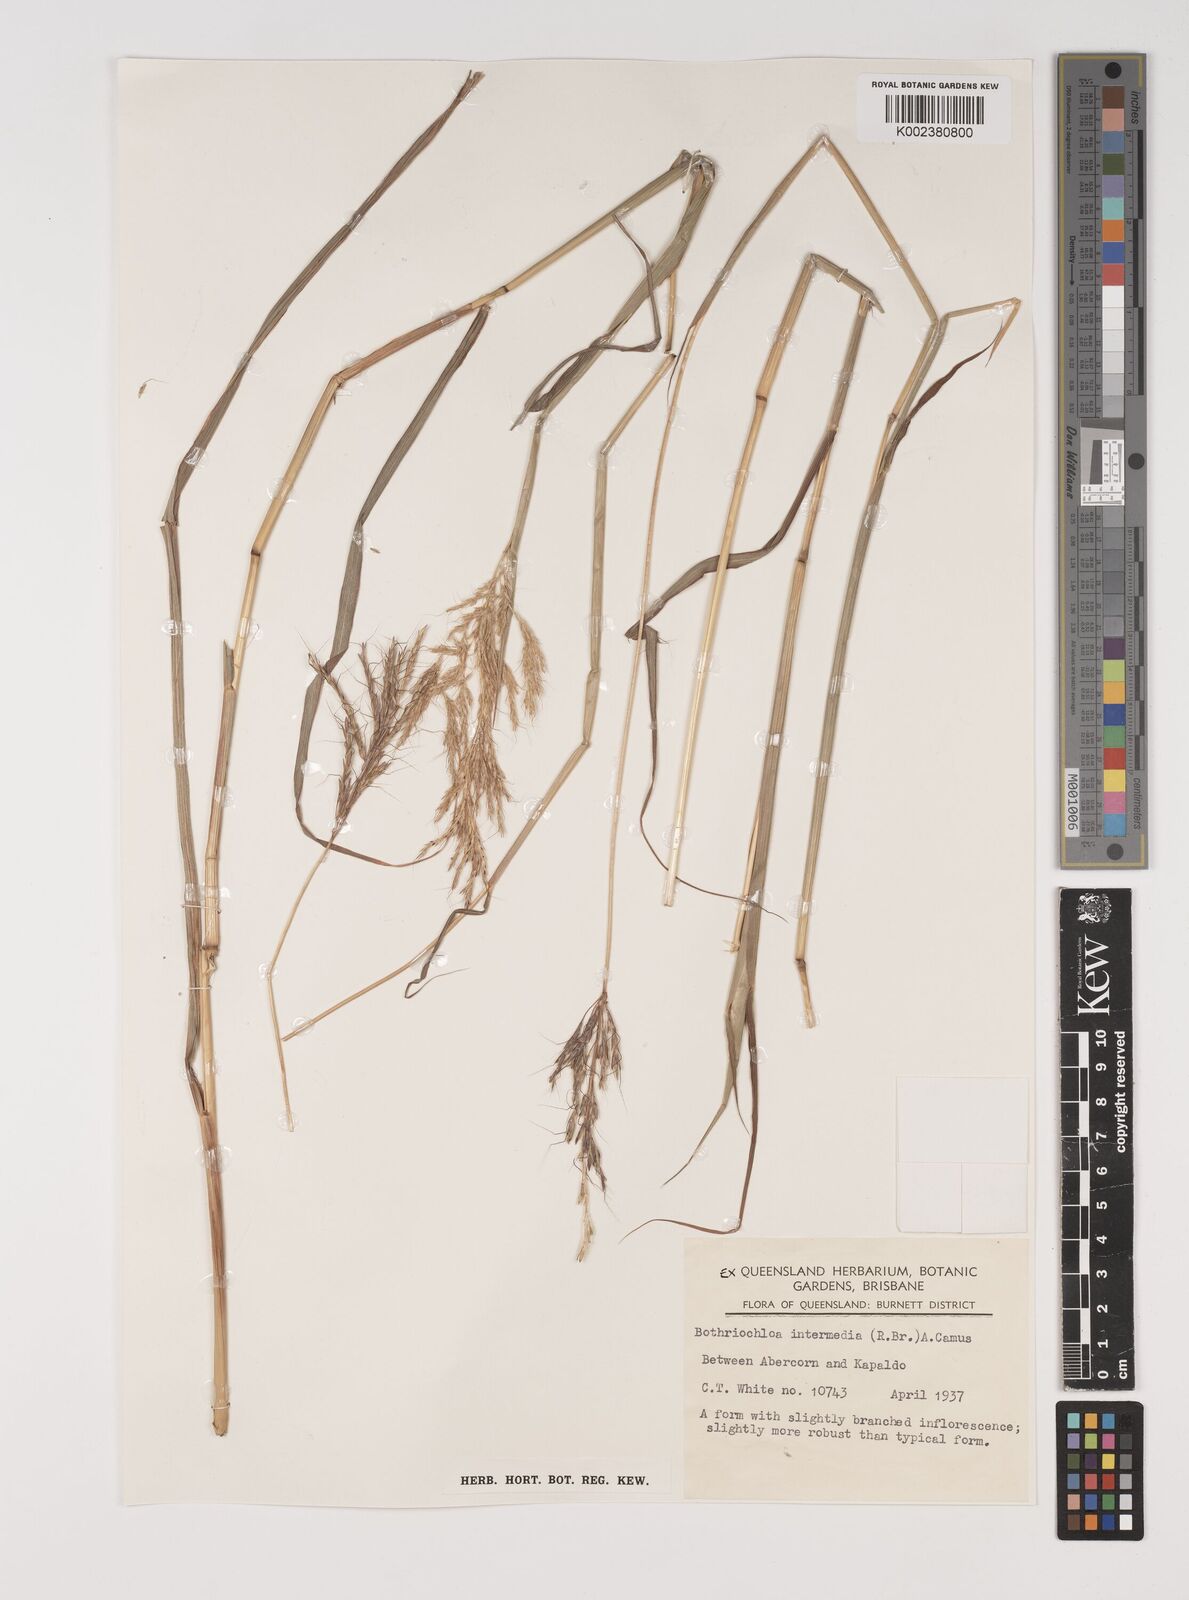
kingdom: Plantae
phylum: Tracheophyta
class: Liliopsida
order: Poales
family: Poaceae
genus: Bothriochloa
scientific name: Bothriochloa bladhii
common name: Caucasian bluestem
